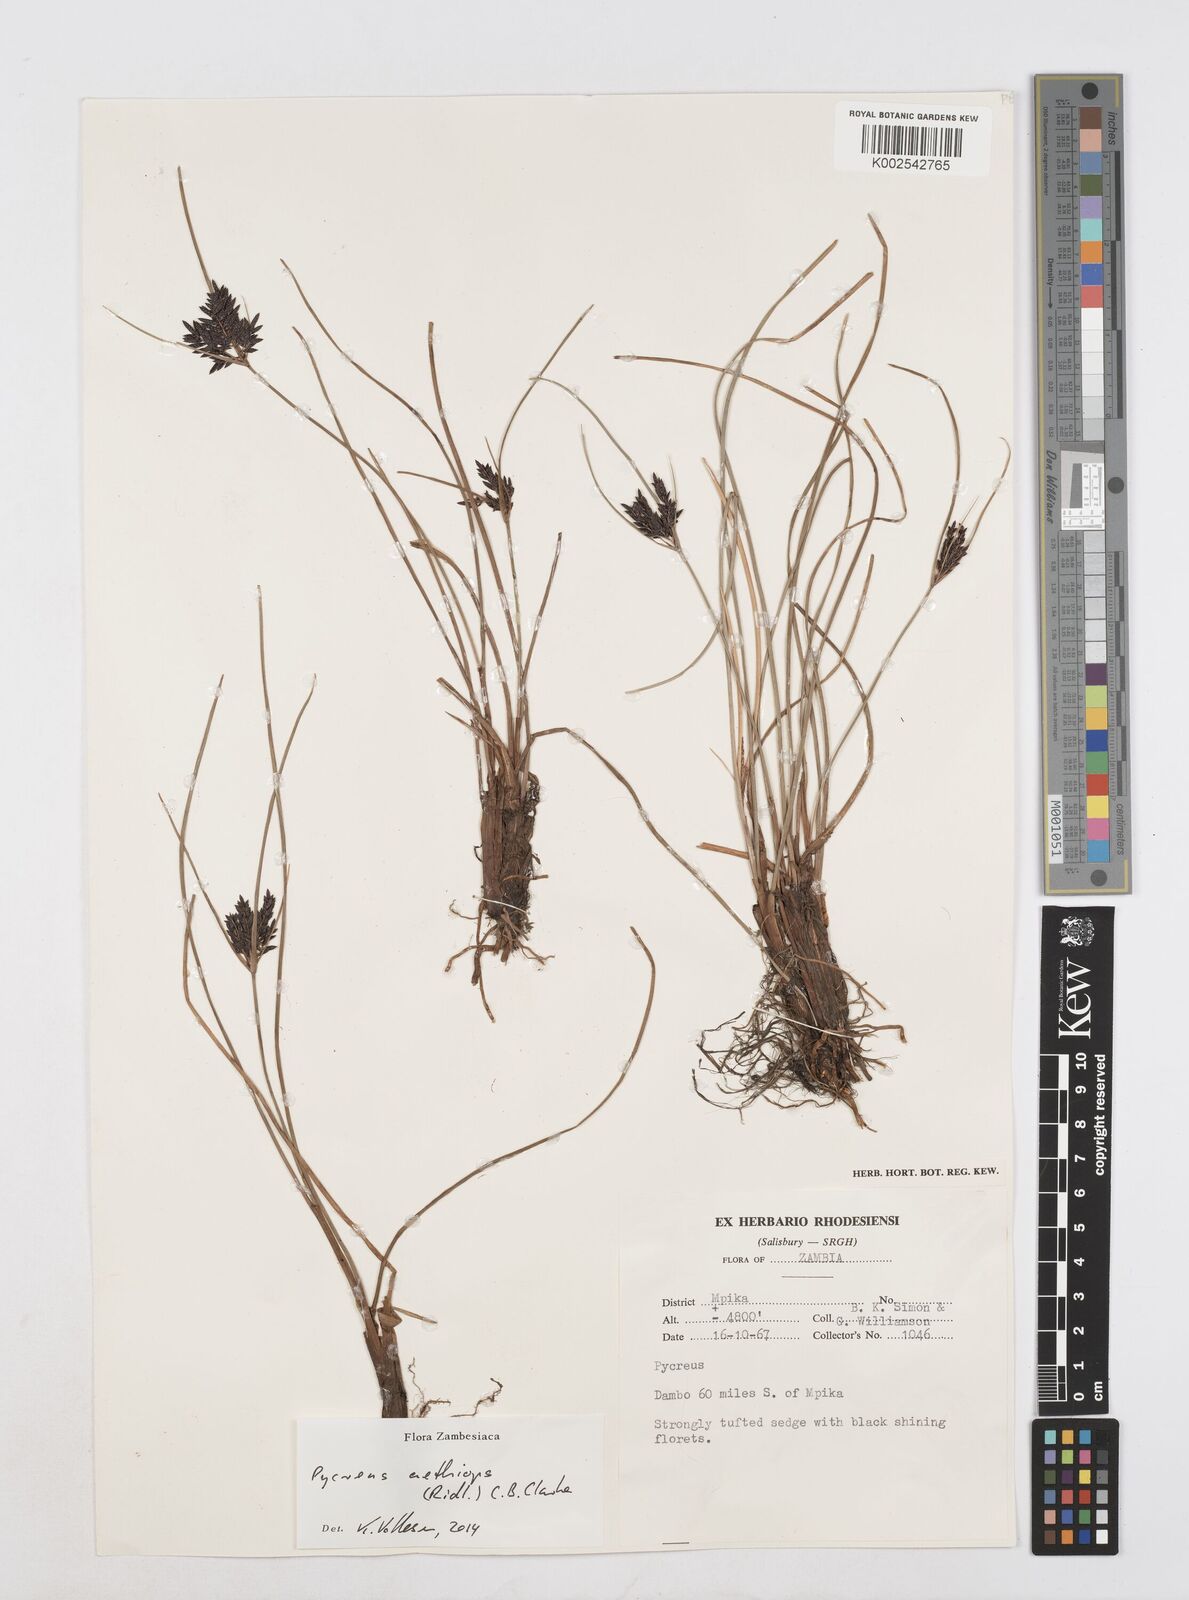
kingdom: Plantae
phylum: Tracheophyta
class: Liliopsida
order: Poales
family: Cyperaceae
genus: Cyperus
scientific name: Cyperus aethiops
